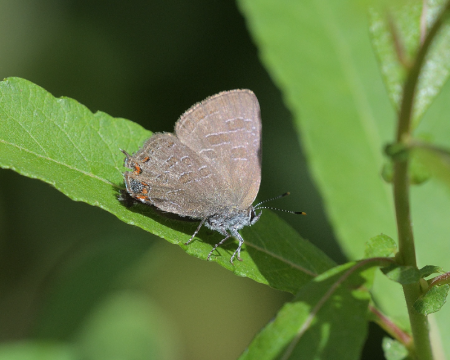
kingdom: Animalia
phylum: Arthropoda
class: Insecta
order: Lepidoptera
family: Lycaenidae
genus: Satyrium
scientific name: Satyrium liparops
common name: Striped Hairstreak
